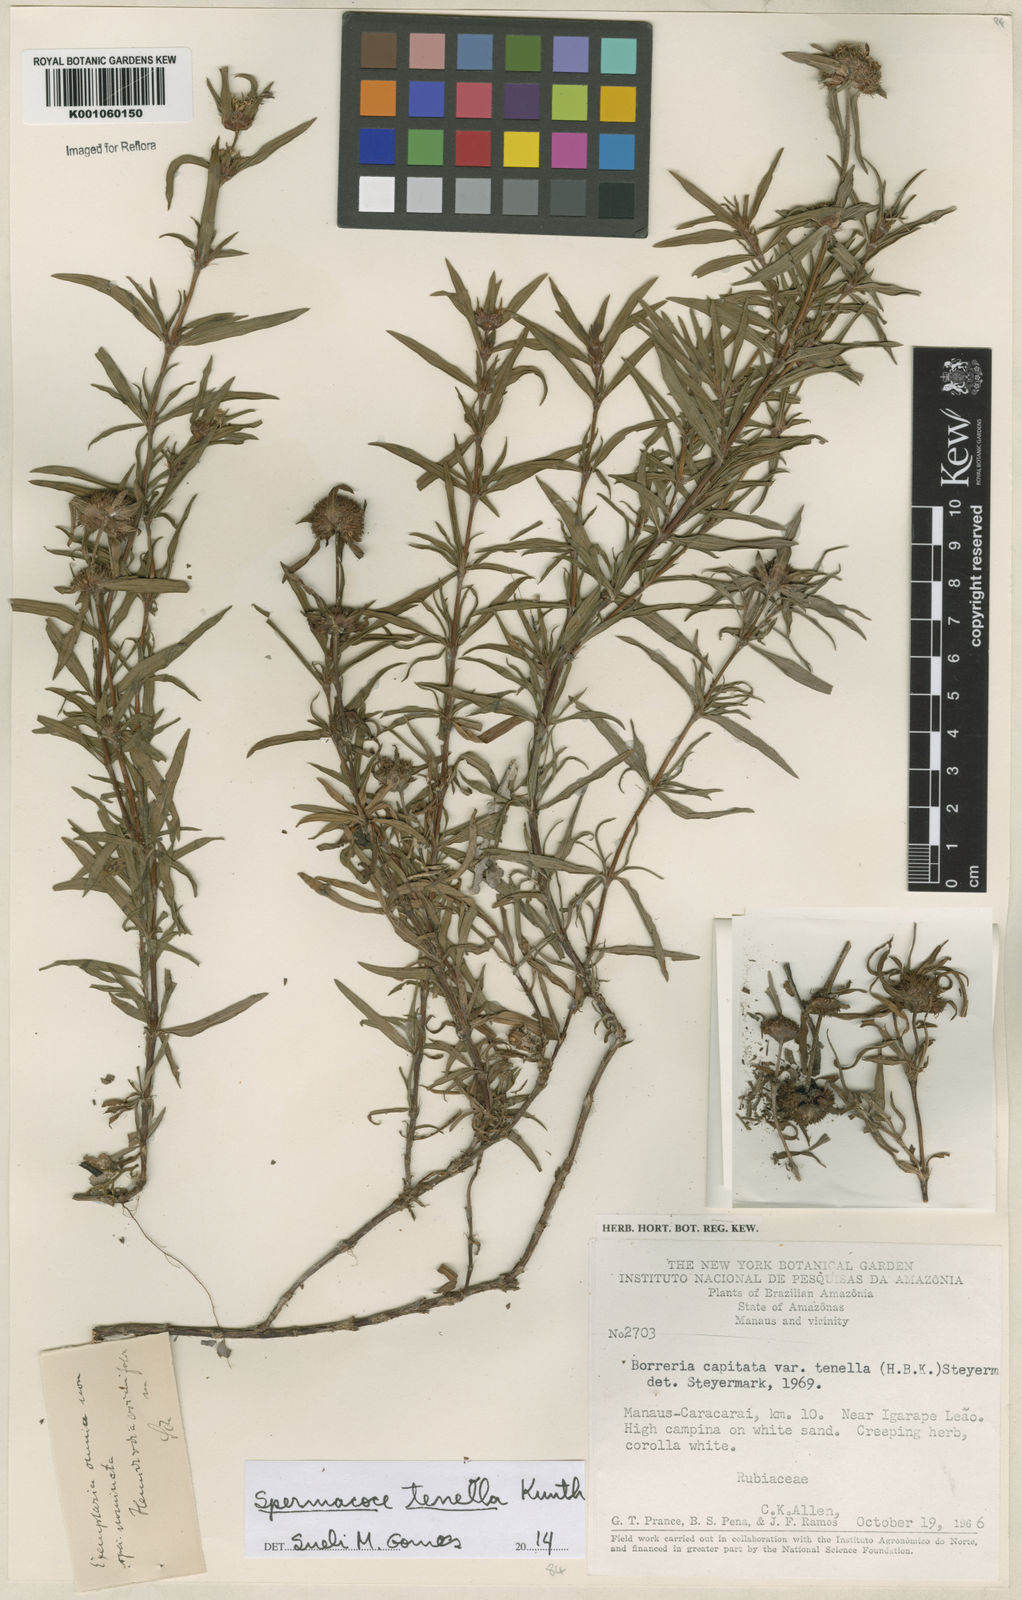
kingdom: Plantae
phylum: Tracheophyta
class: Magnoliopsida
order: Gentianales
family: Rubiaceae
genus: Spermacoce
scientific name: Spermacoce orinocensis
